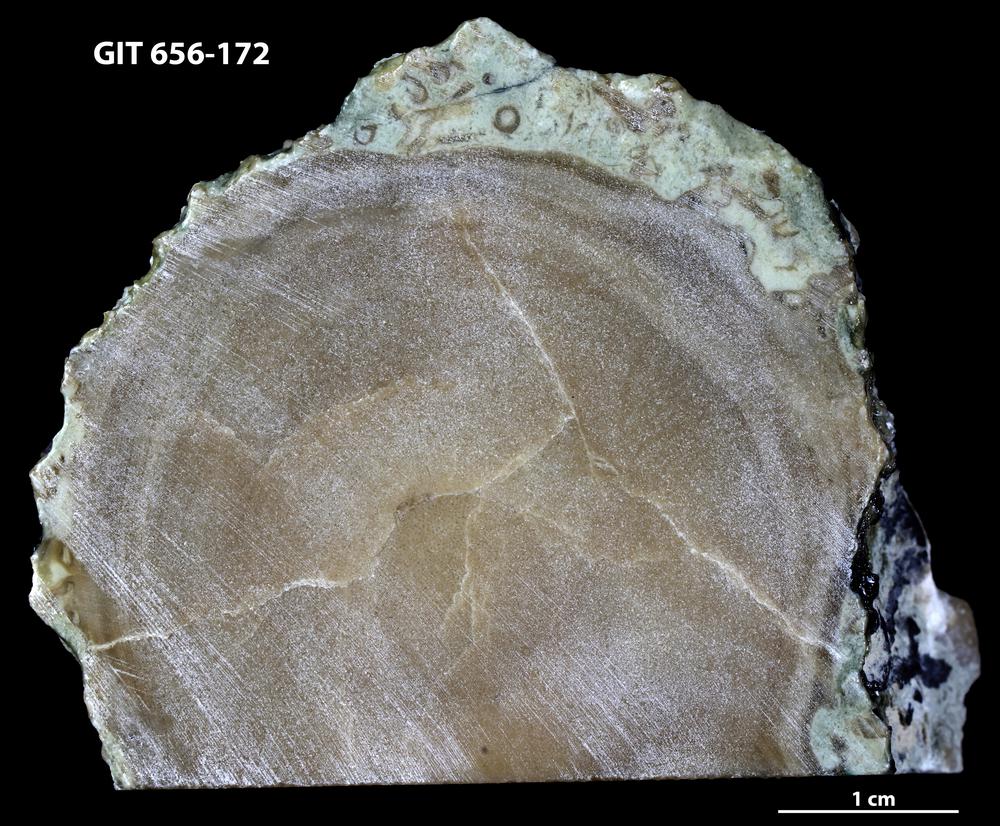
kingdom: Animalia
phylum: Porifera
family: Stromatoporidae
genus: Stromatopora
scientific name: Stromatopora
